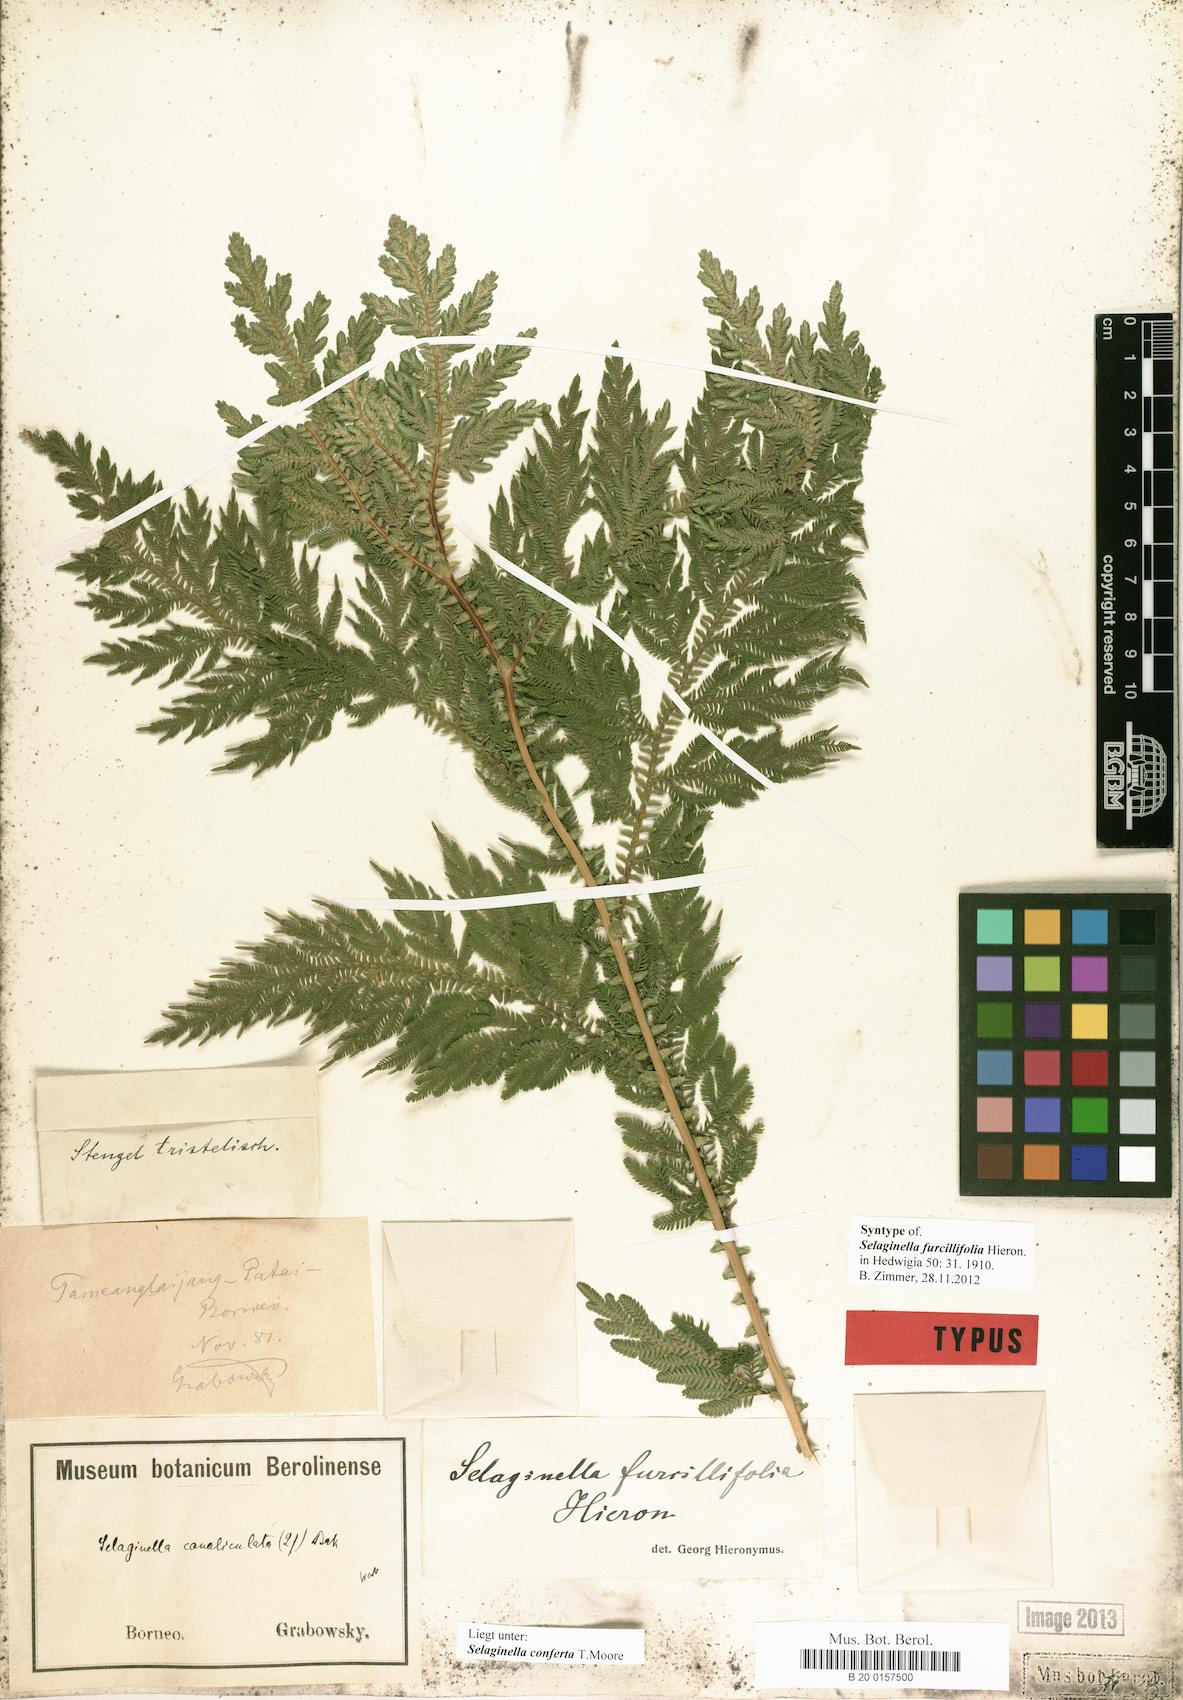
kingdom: Plantae
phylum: Tracheophyta
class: Lycopodiopsida
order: Selaginellales
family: Selaginellaceae
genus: Selaginella
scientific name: Selaginella conferta
